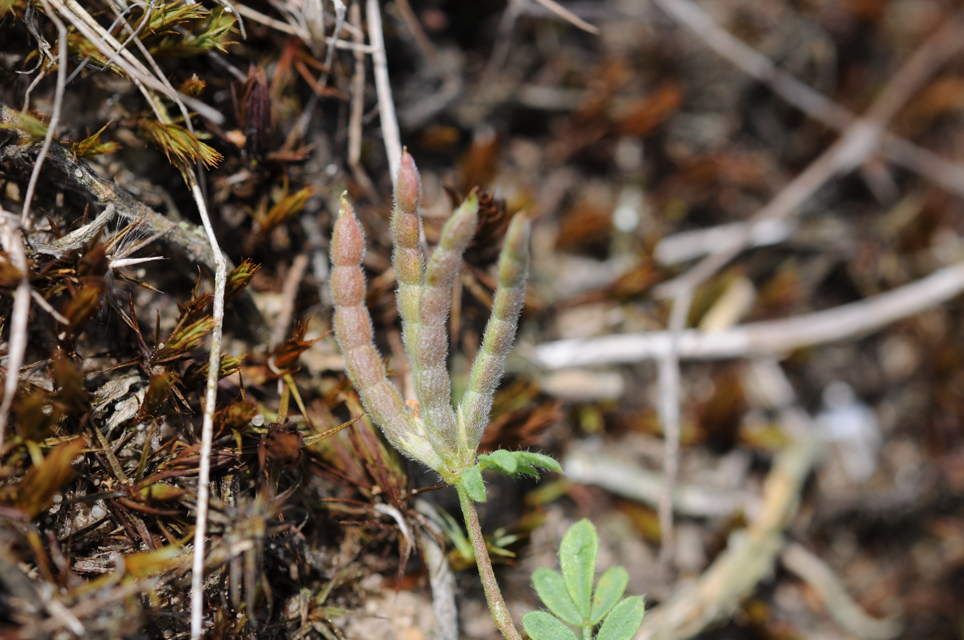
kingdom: Plantae
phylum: Tracheophyta
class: Magnoliopsida
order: Fabales
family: Fabaceae
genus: Ornithopus
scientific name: Ornithopus perpusillus
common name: Bird's-foot
